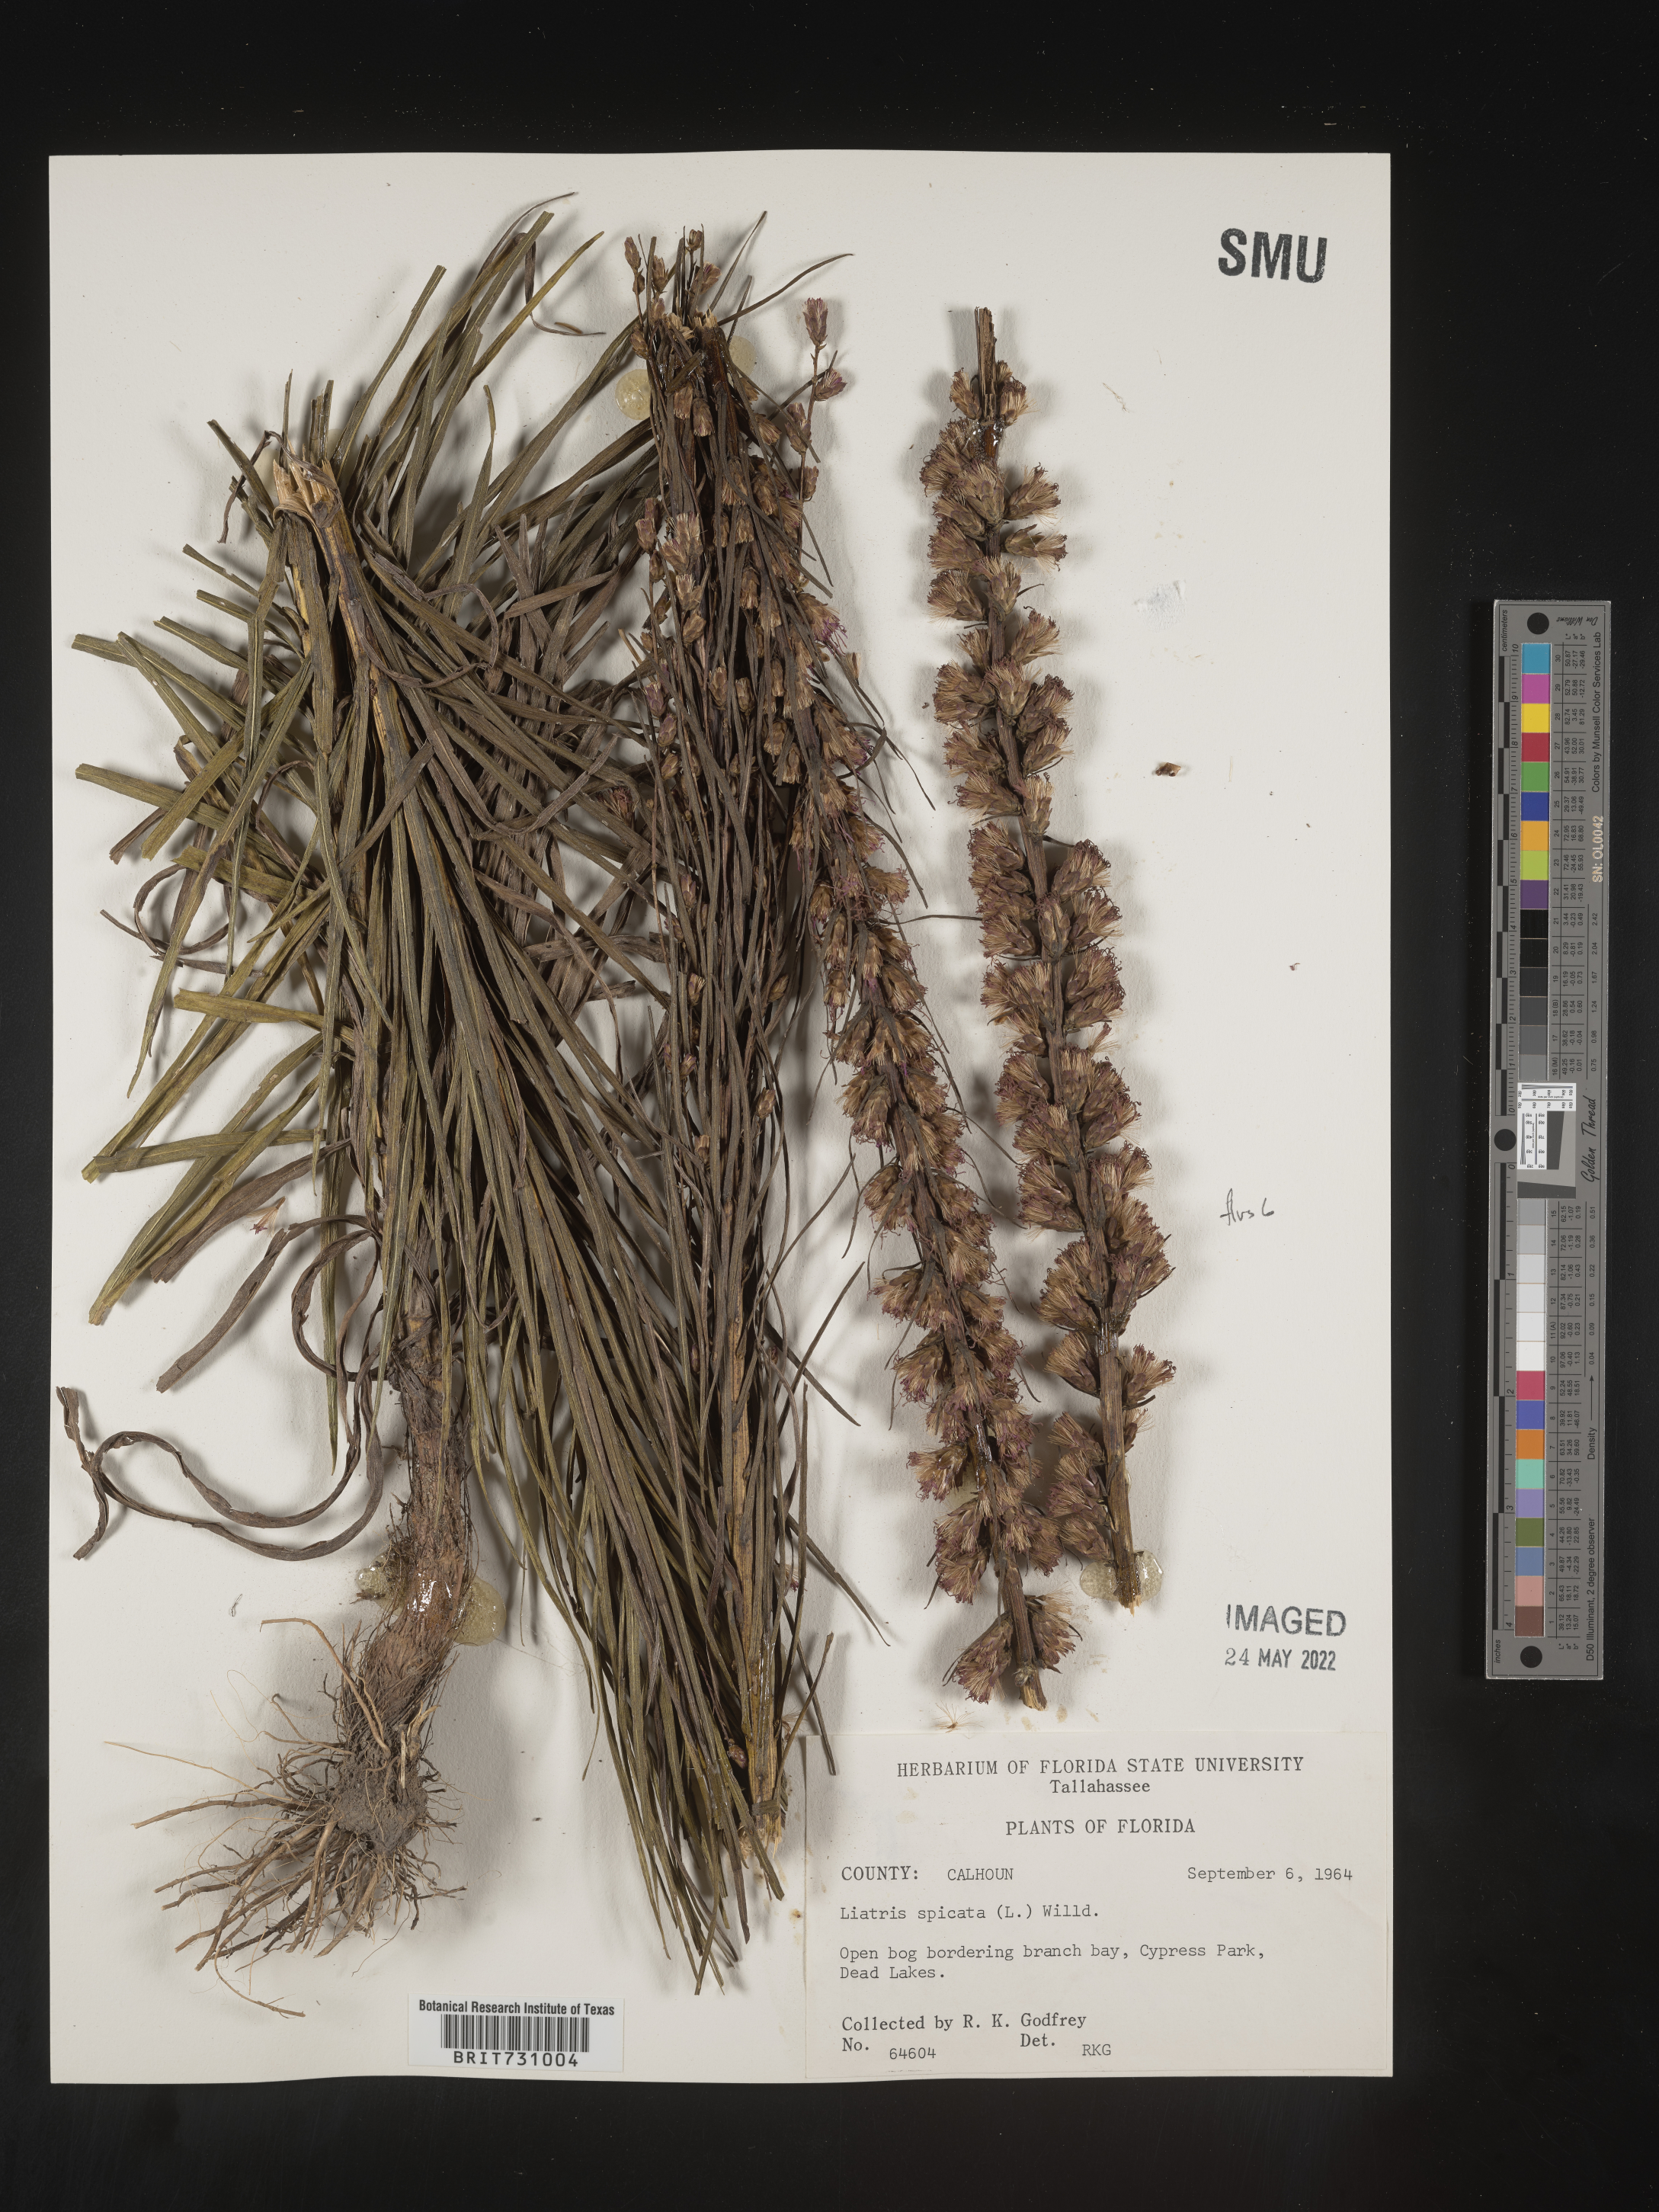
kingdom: Plantae
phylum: Tracheophyta
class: Magnoliopsida
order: Asterales
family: Asteraceae
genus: Liatris
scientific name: Liatris spicata
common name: Florist gayfeather
